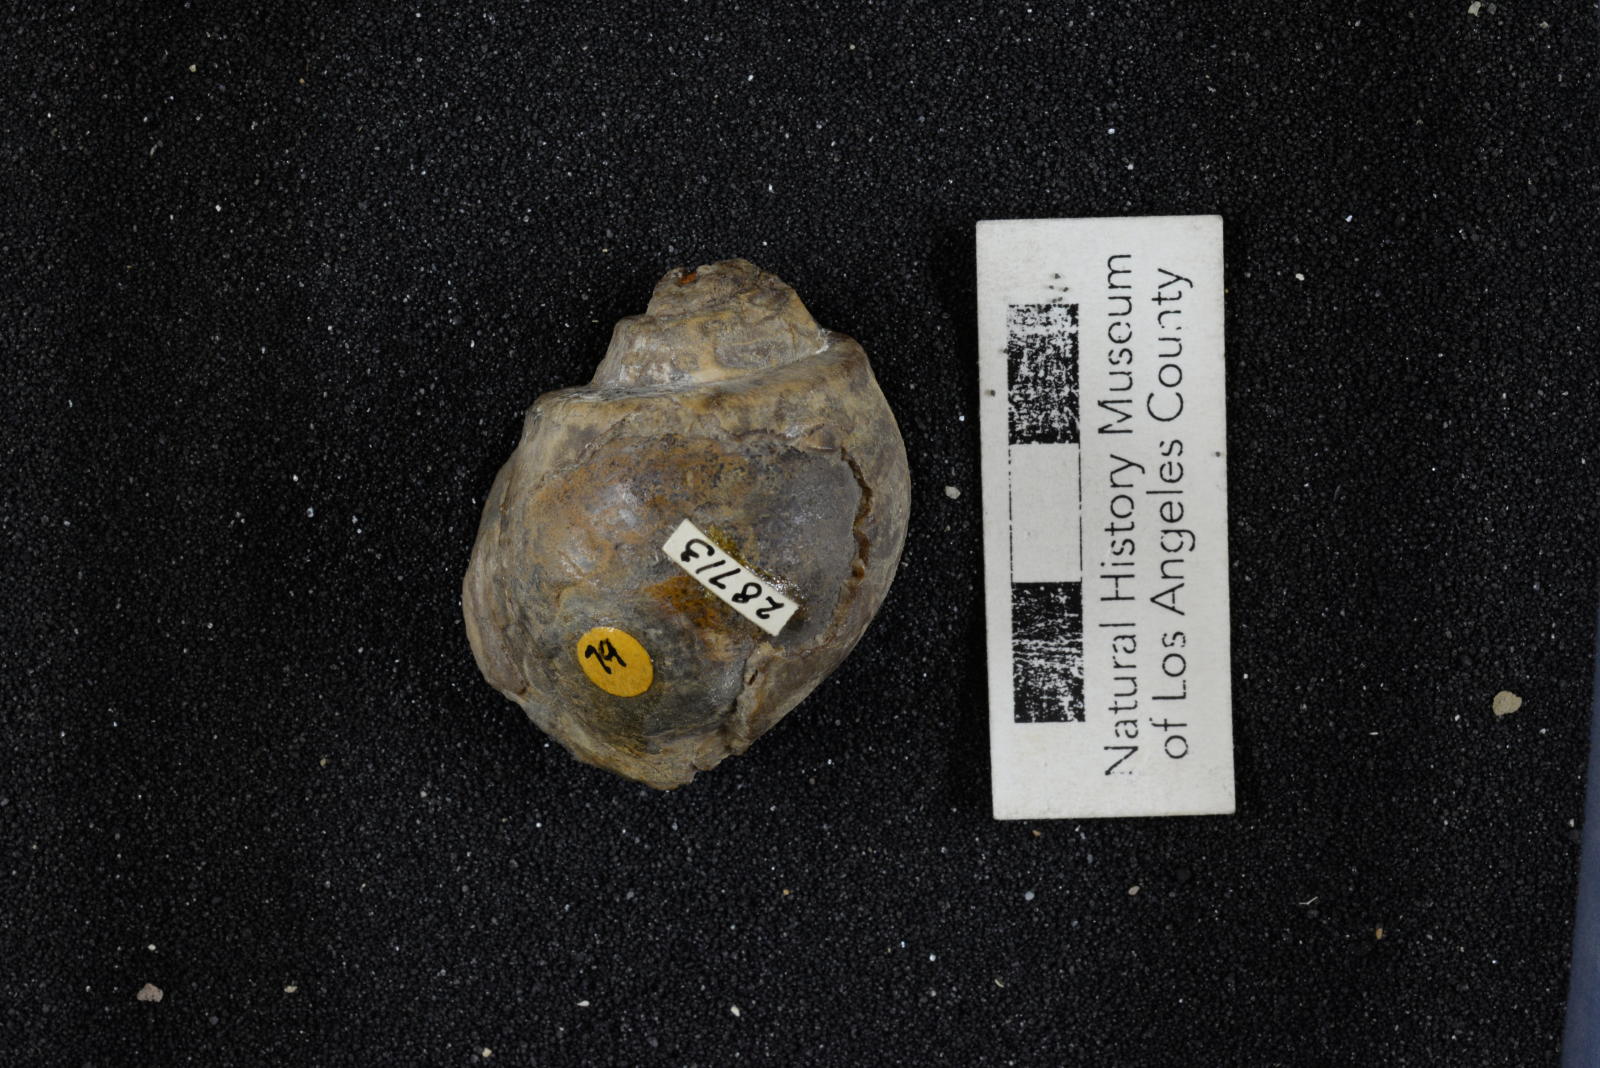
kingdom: Animalia
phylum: Mollusca
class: Bivalvia
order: Adapedonta
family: Hiatellidae
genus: Panopea
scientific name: Panopea Panope californica
